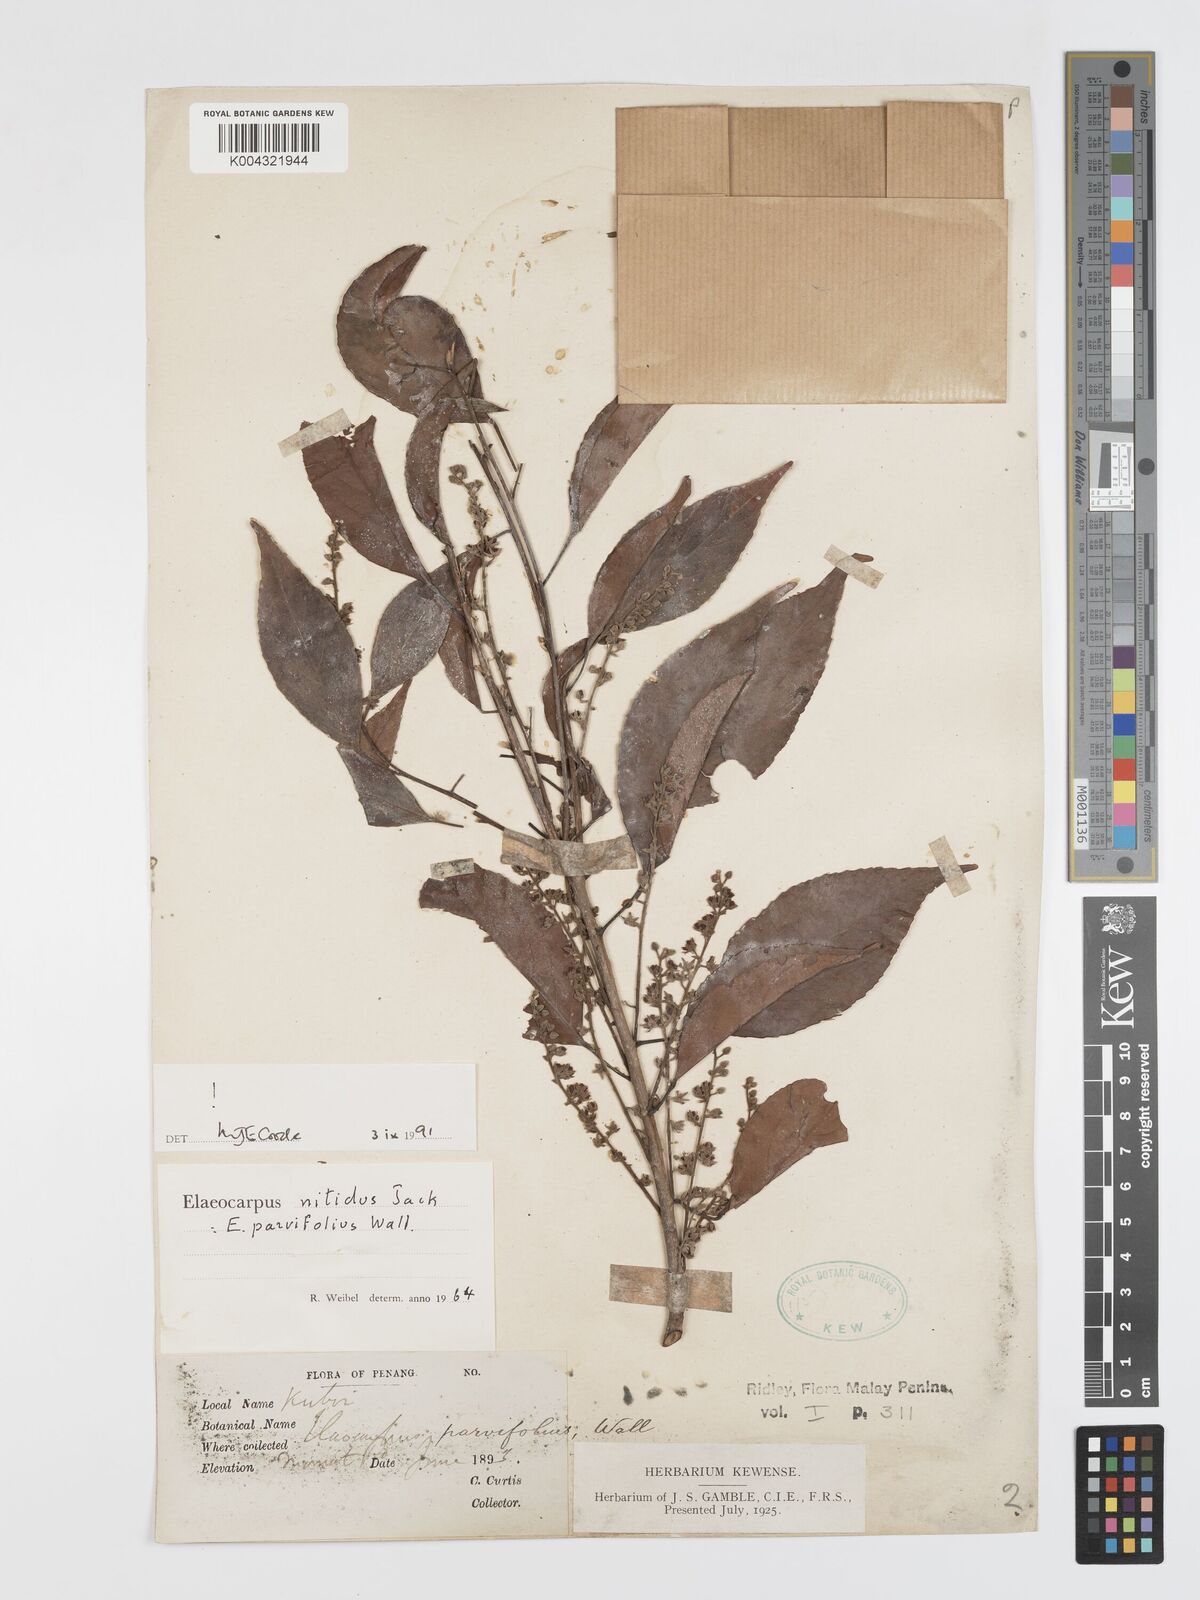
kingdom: Plantae
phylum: Tracheophyta
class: Magnoliopsida
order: Oxalidales
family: Elaeocarpaceae
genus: Elaeocarpus
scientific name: Elaeocarpus nitidus
